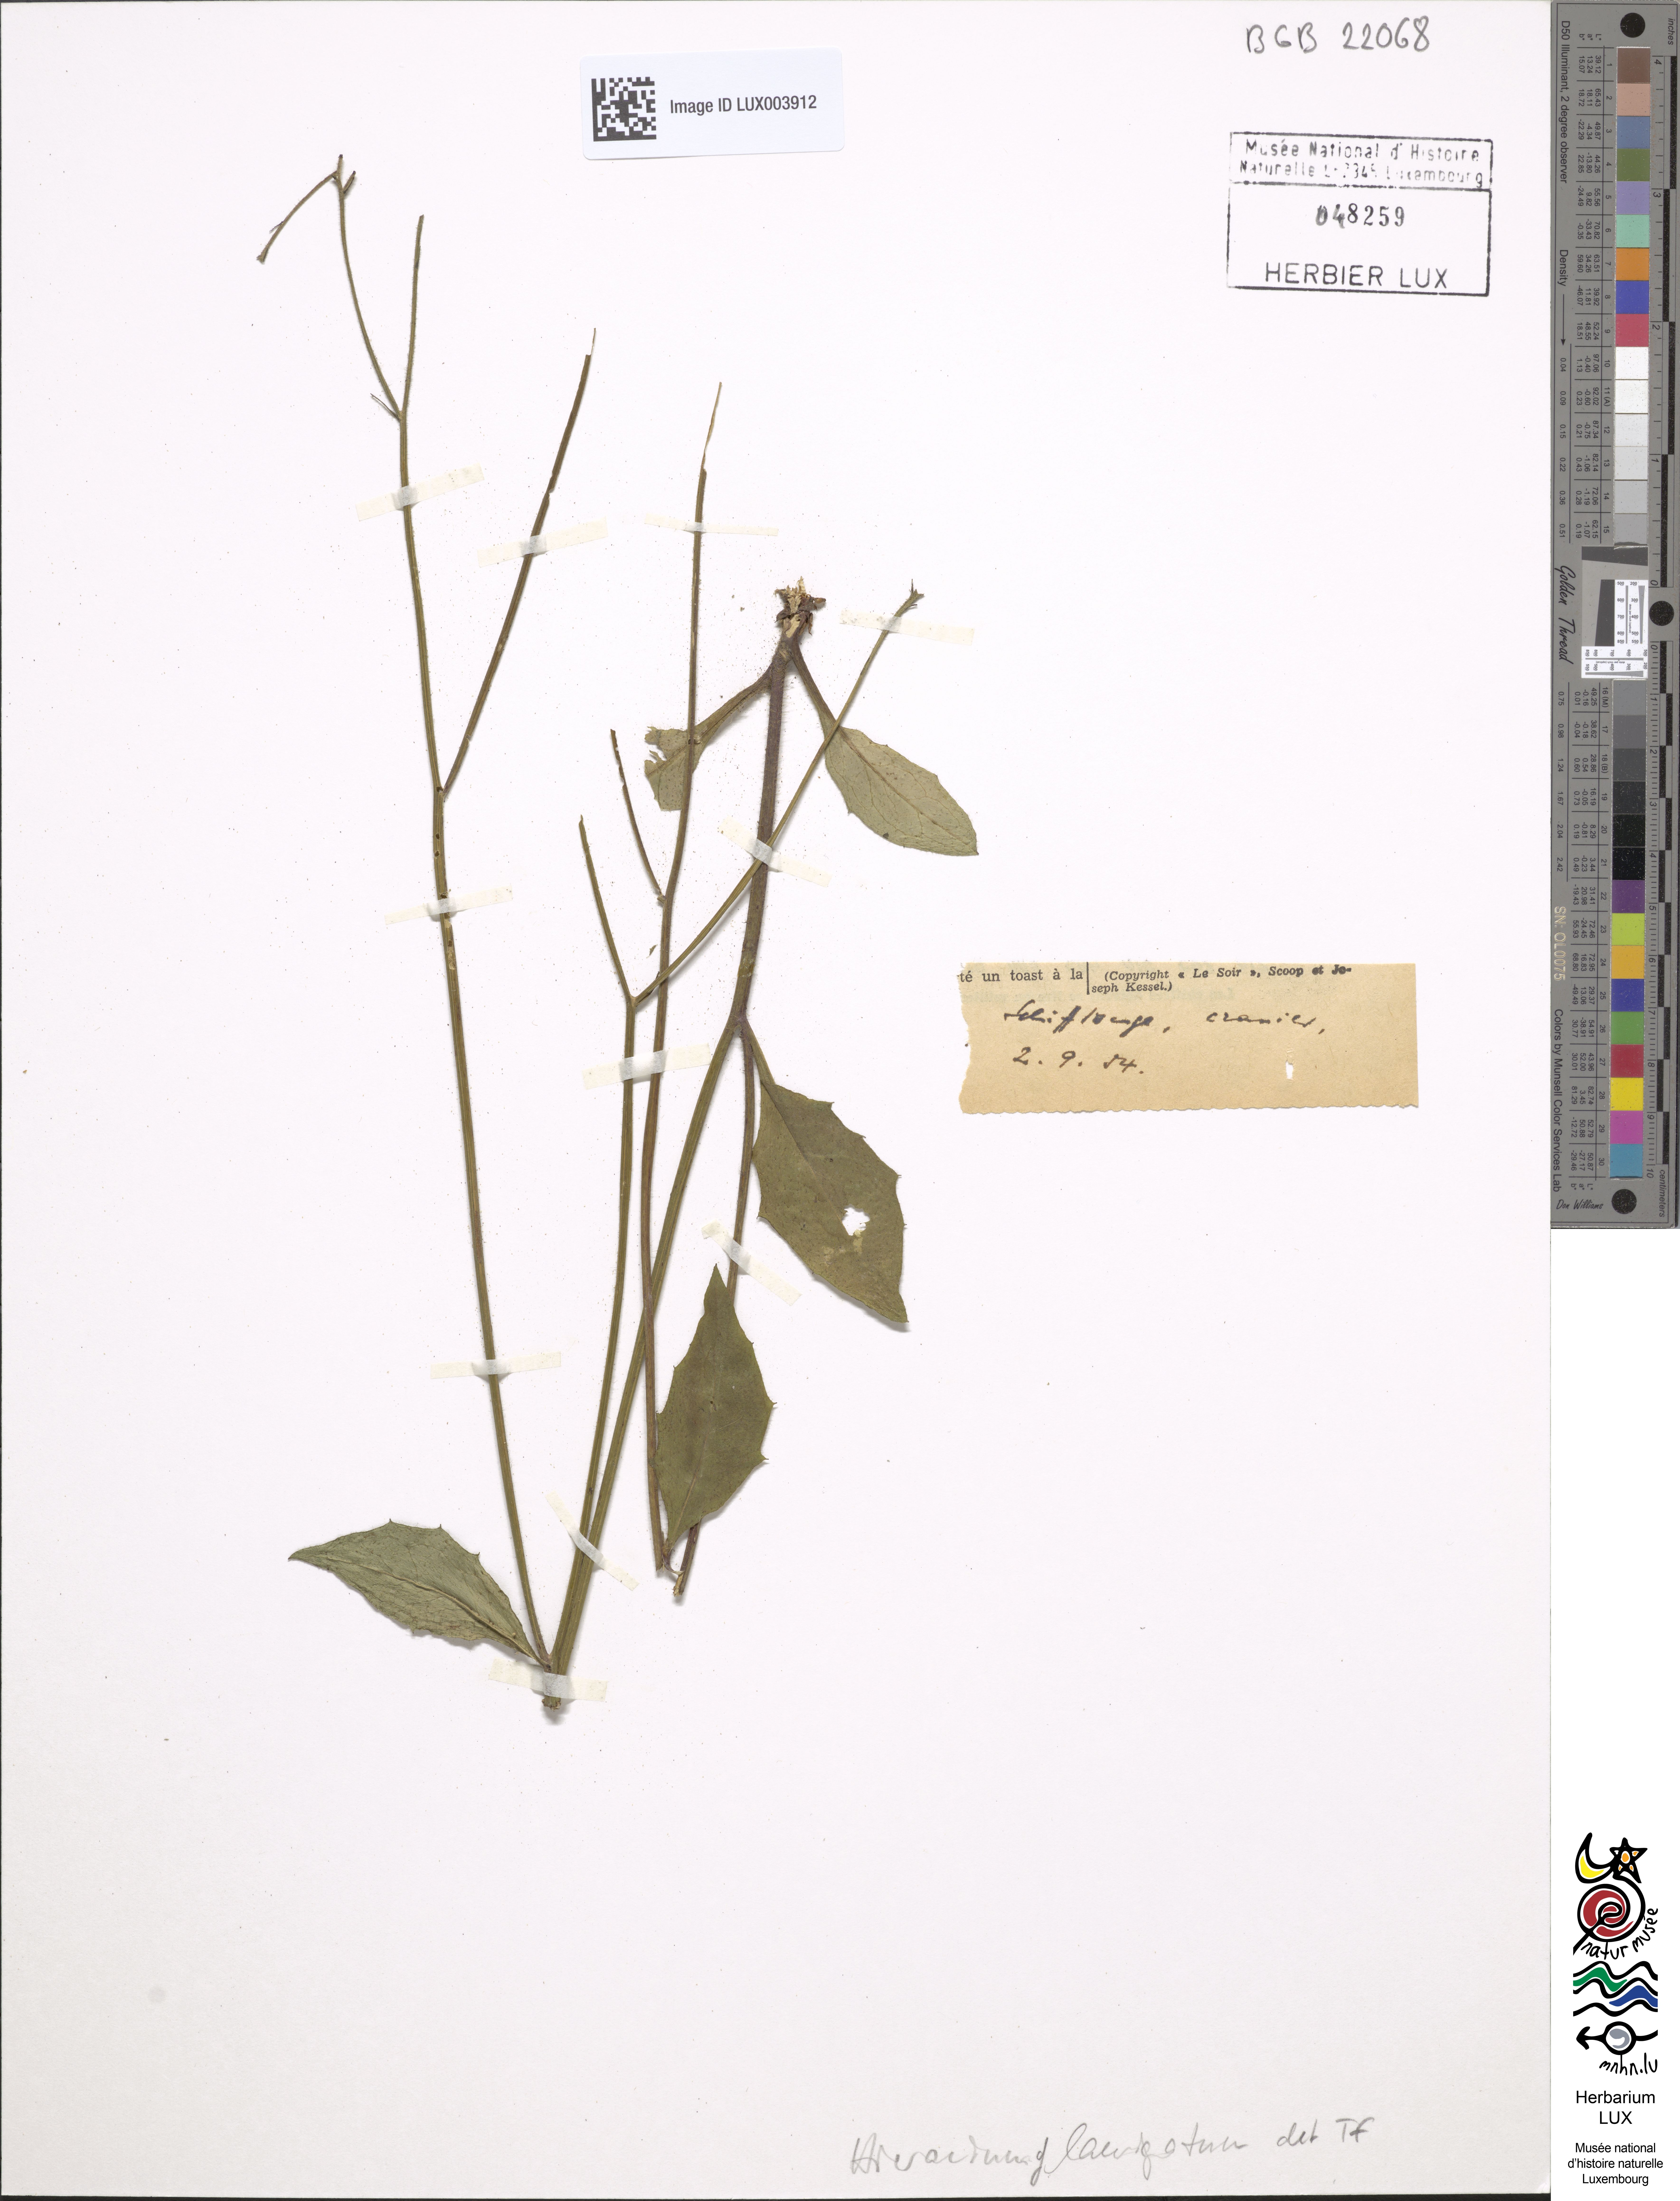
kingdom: Plantae
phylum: Tracheophyta
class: Magnoliopsida
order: Asterales
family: Asteraceae
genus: Hieracium
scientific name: Hieracium laevigatum
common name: Smooth hawkweed
